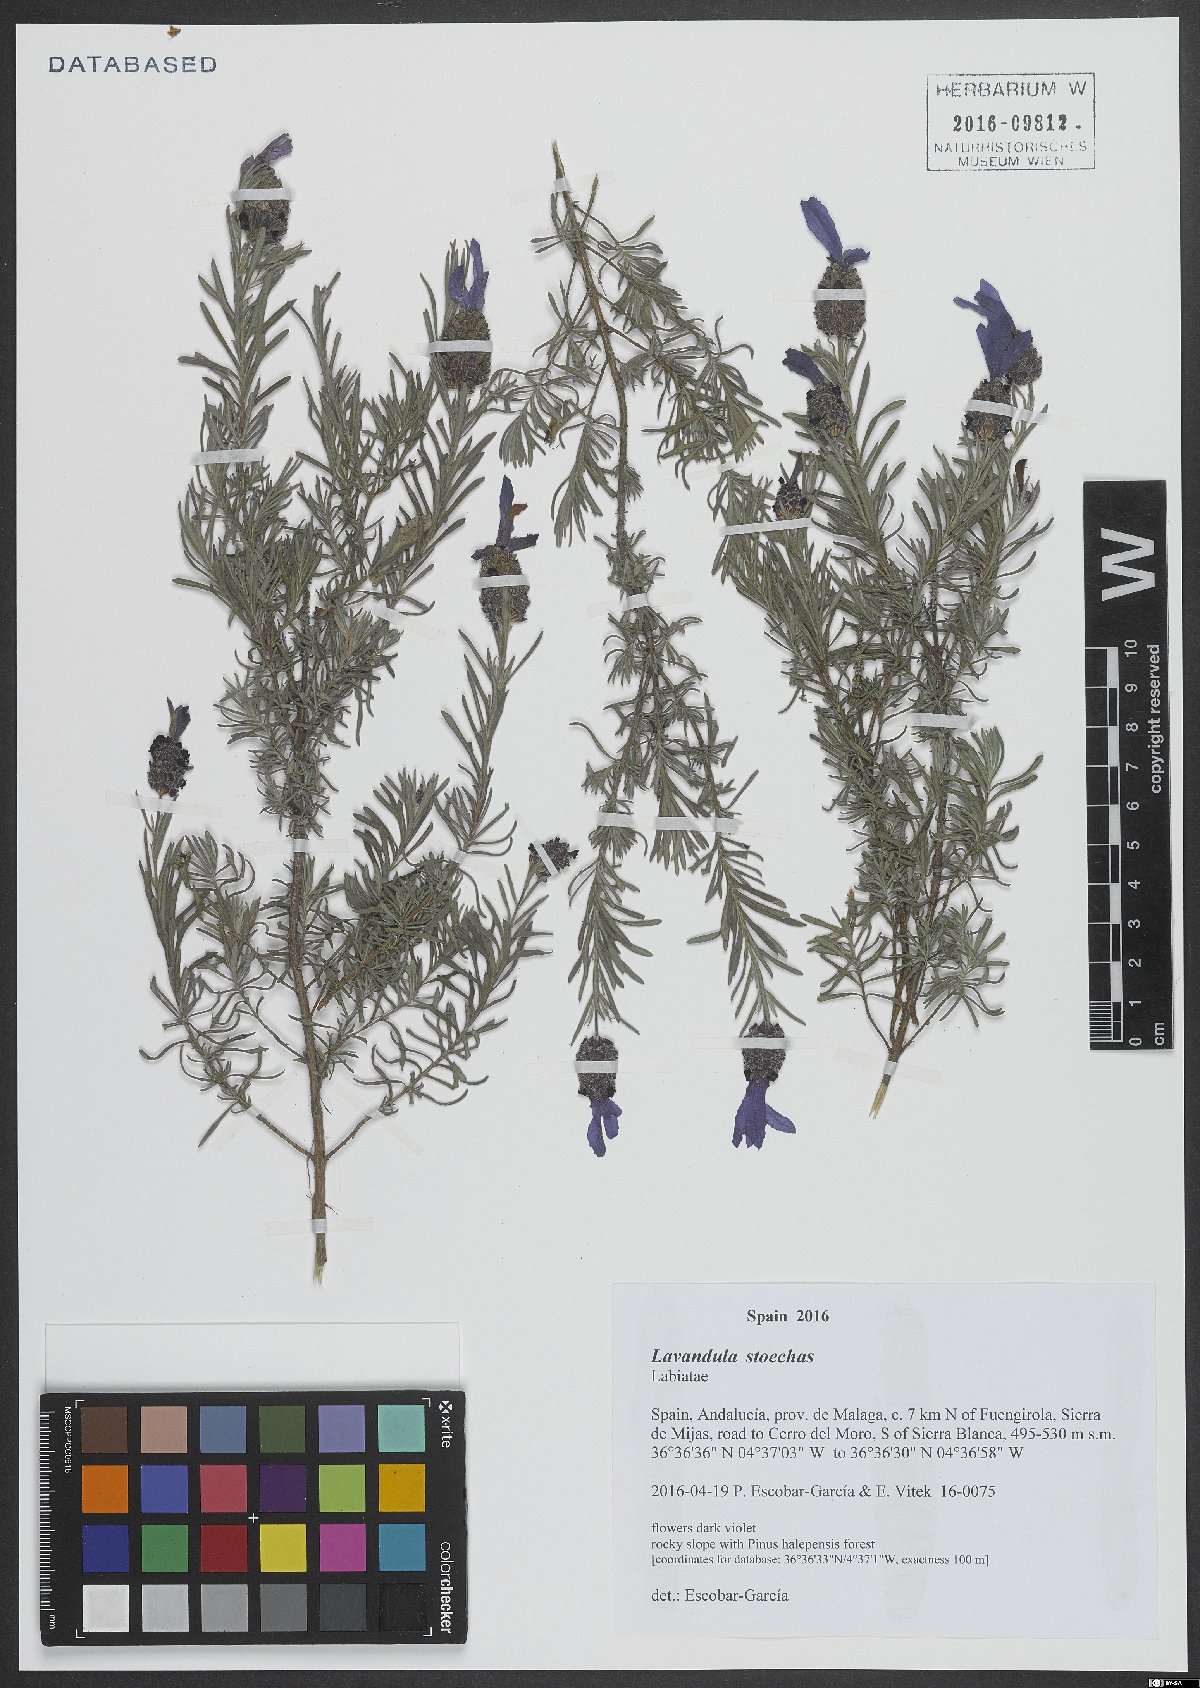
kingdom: Plantae
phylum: Tracheophyta
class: Magnoliopsida
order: Lamiales
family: Lamiaceae
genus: Lavandula
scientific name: Lavandula stoechas
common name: French lavender
